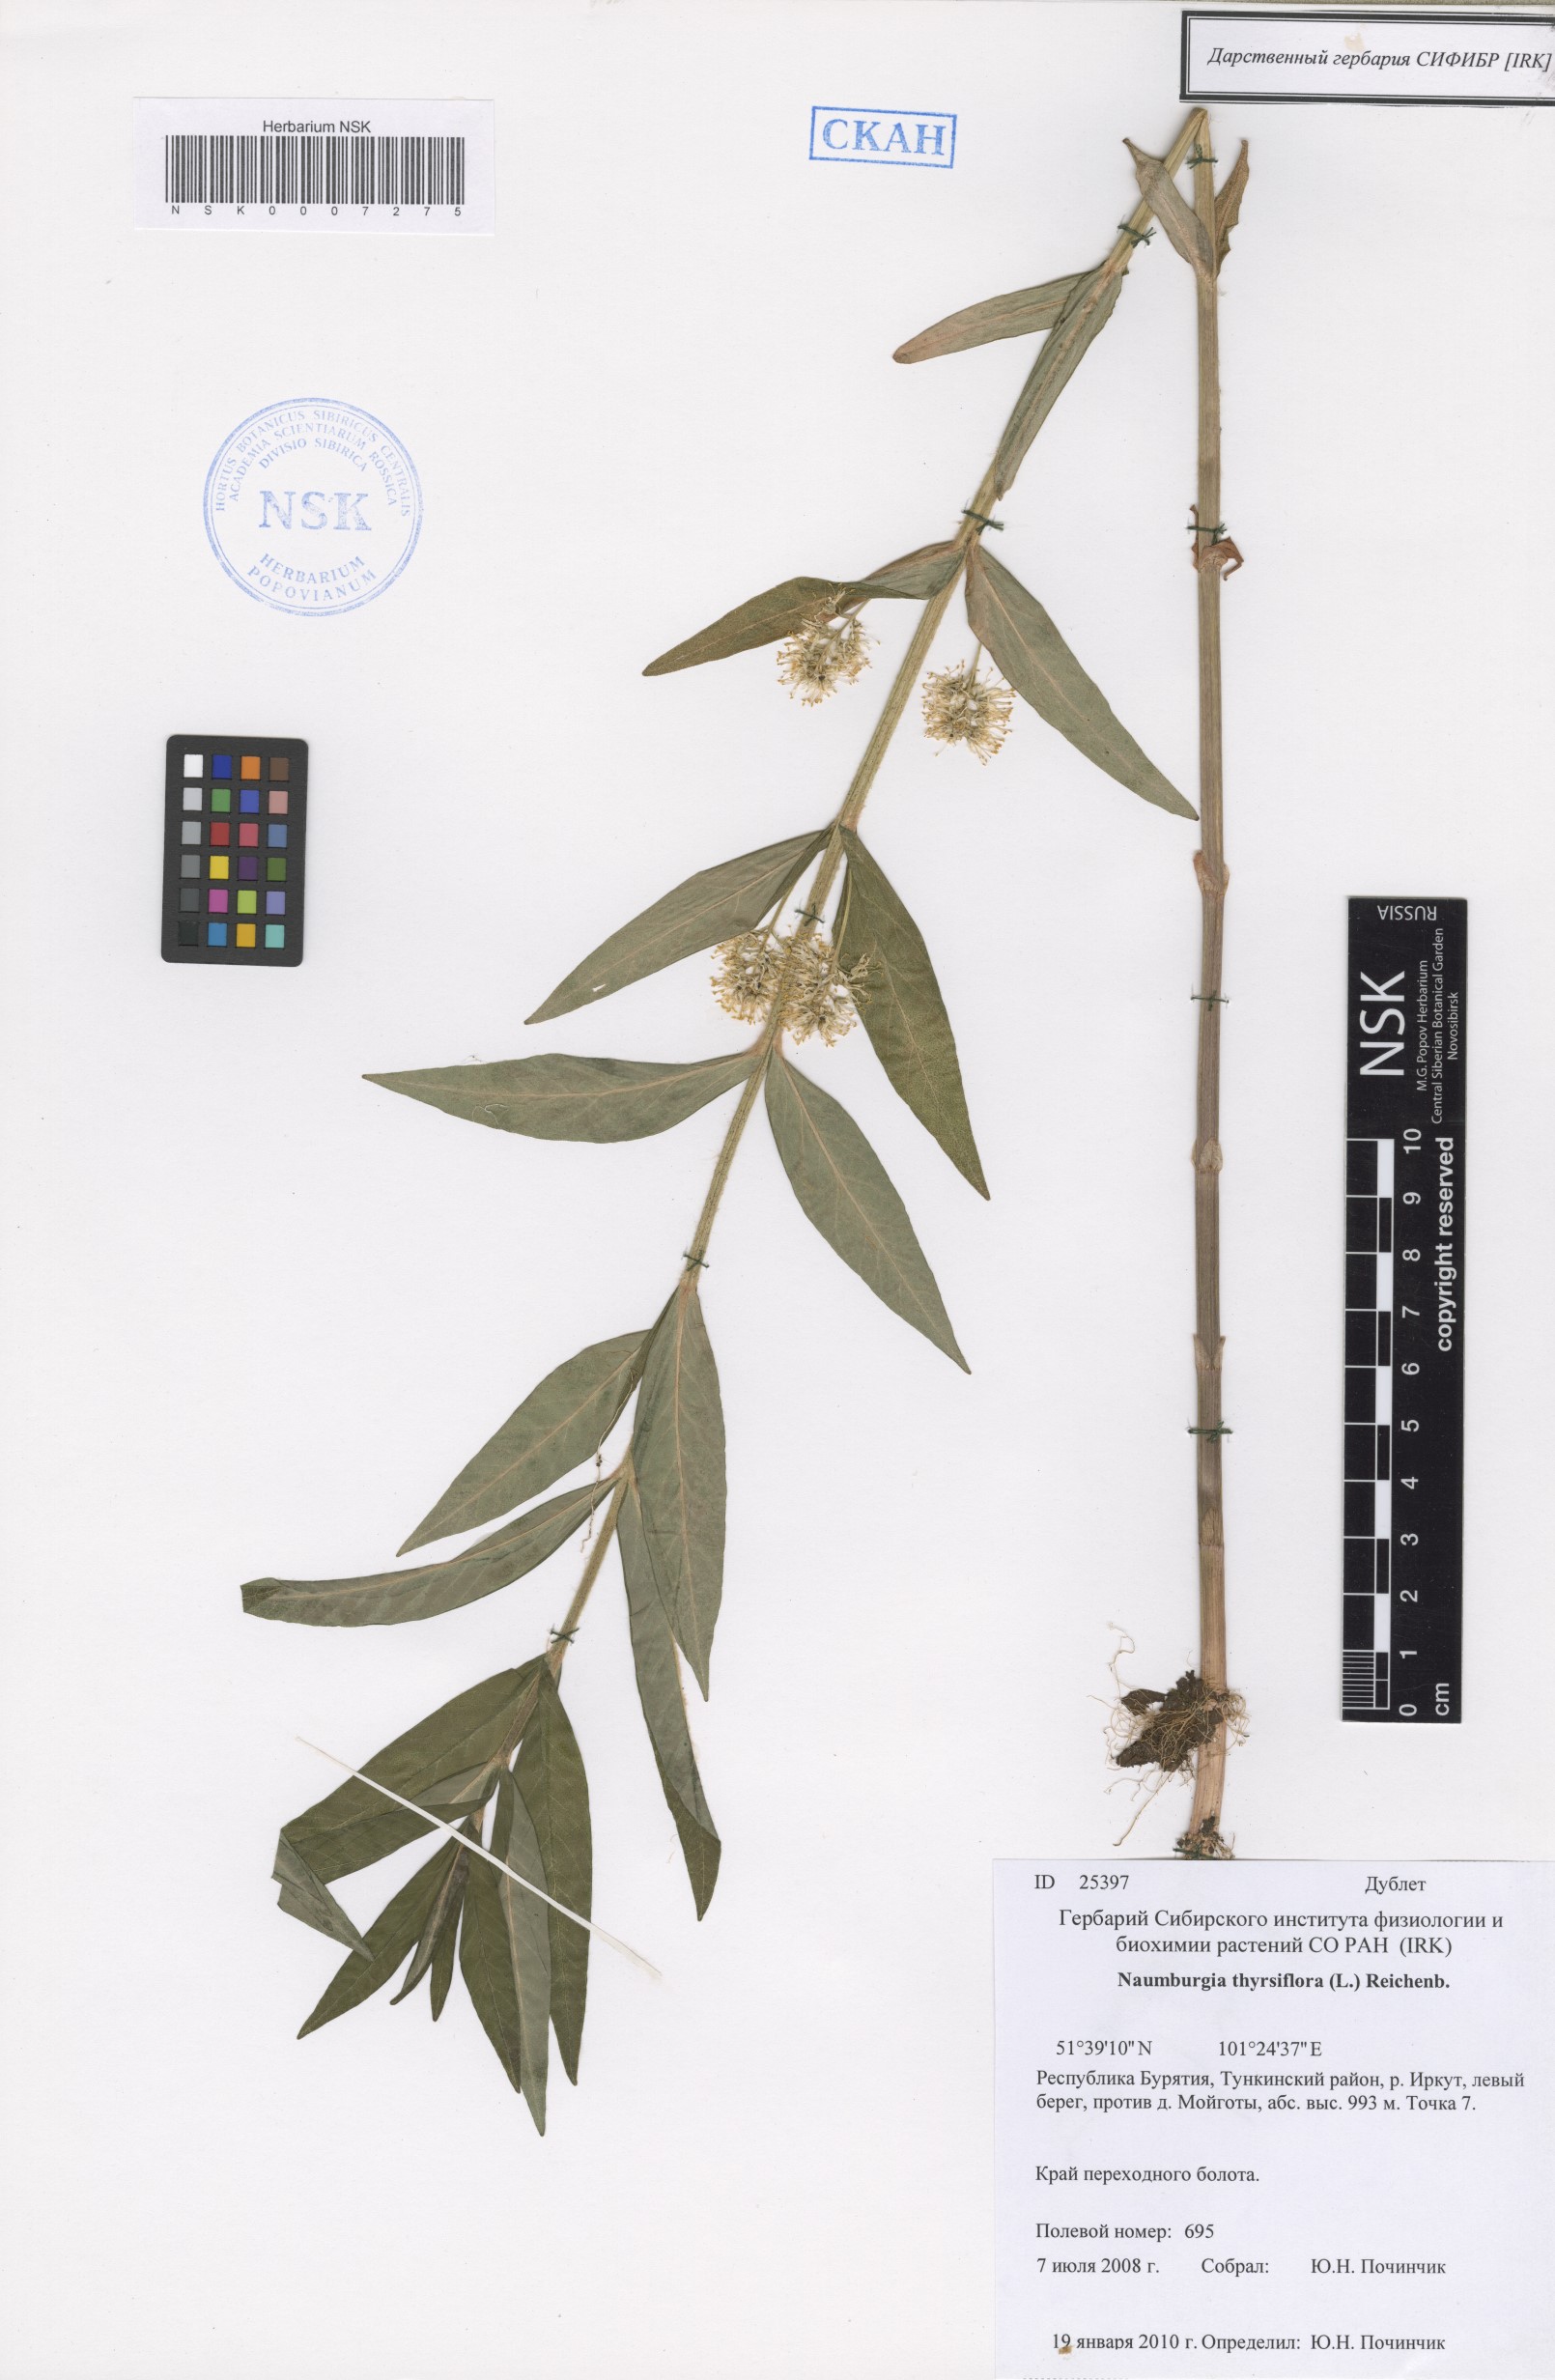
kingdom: Plantae
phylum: Tracheophyta
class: Magnoliopsida
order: Ericales
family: Primulaceae
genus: Lysimachia
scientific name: Lysimachia thyrsiflora
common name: Tufted loosestrife
